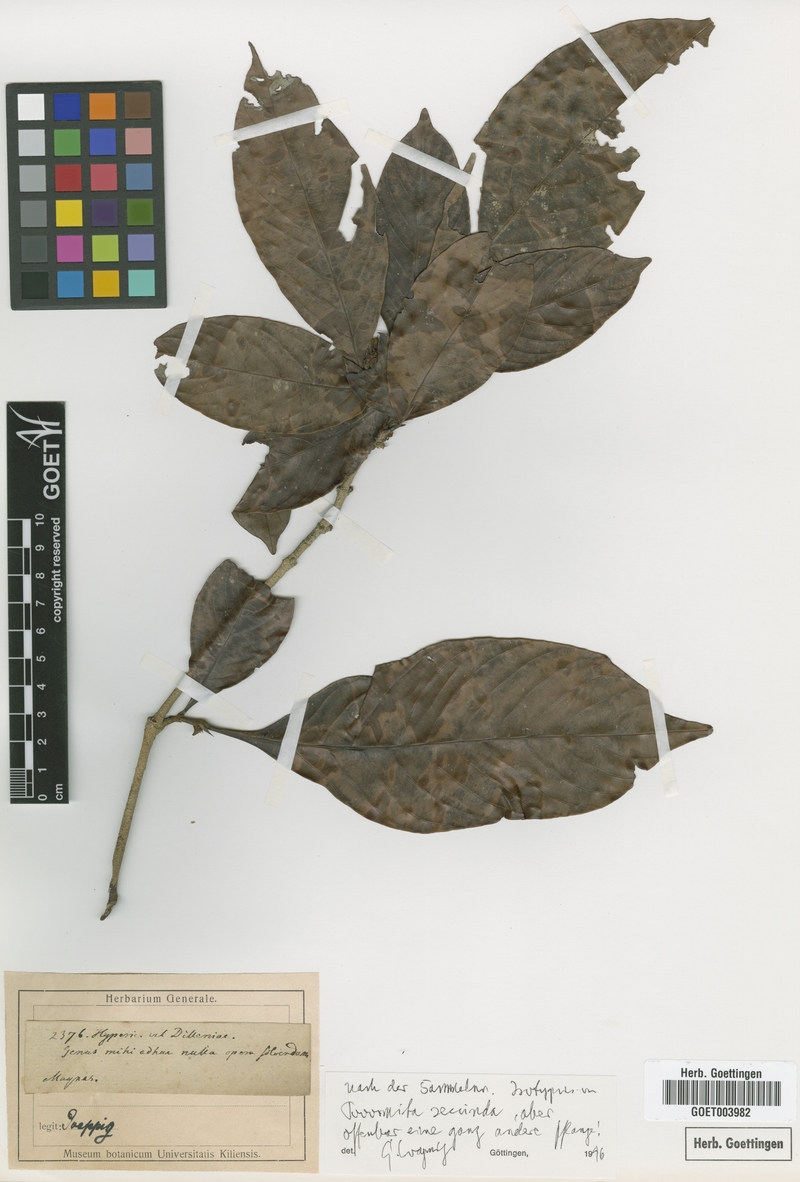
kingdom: Plantae
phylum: Tracheophyta
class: Magnoliopsida
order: Malpighiales
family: Clusiaceae
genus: Tovomita
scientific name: Tovomita secunda
